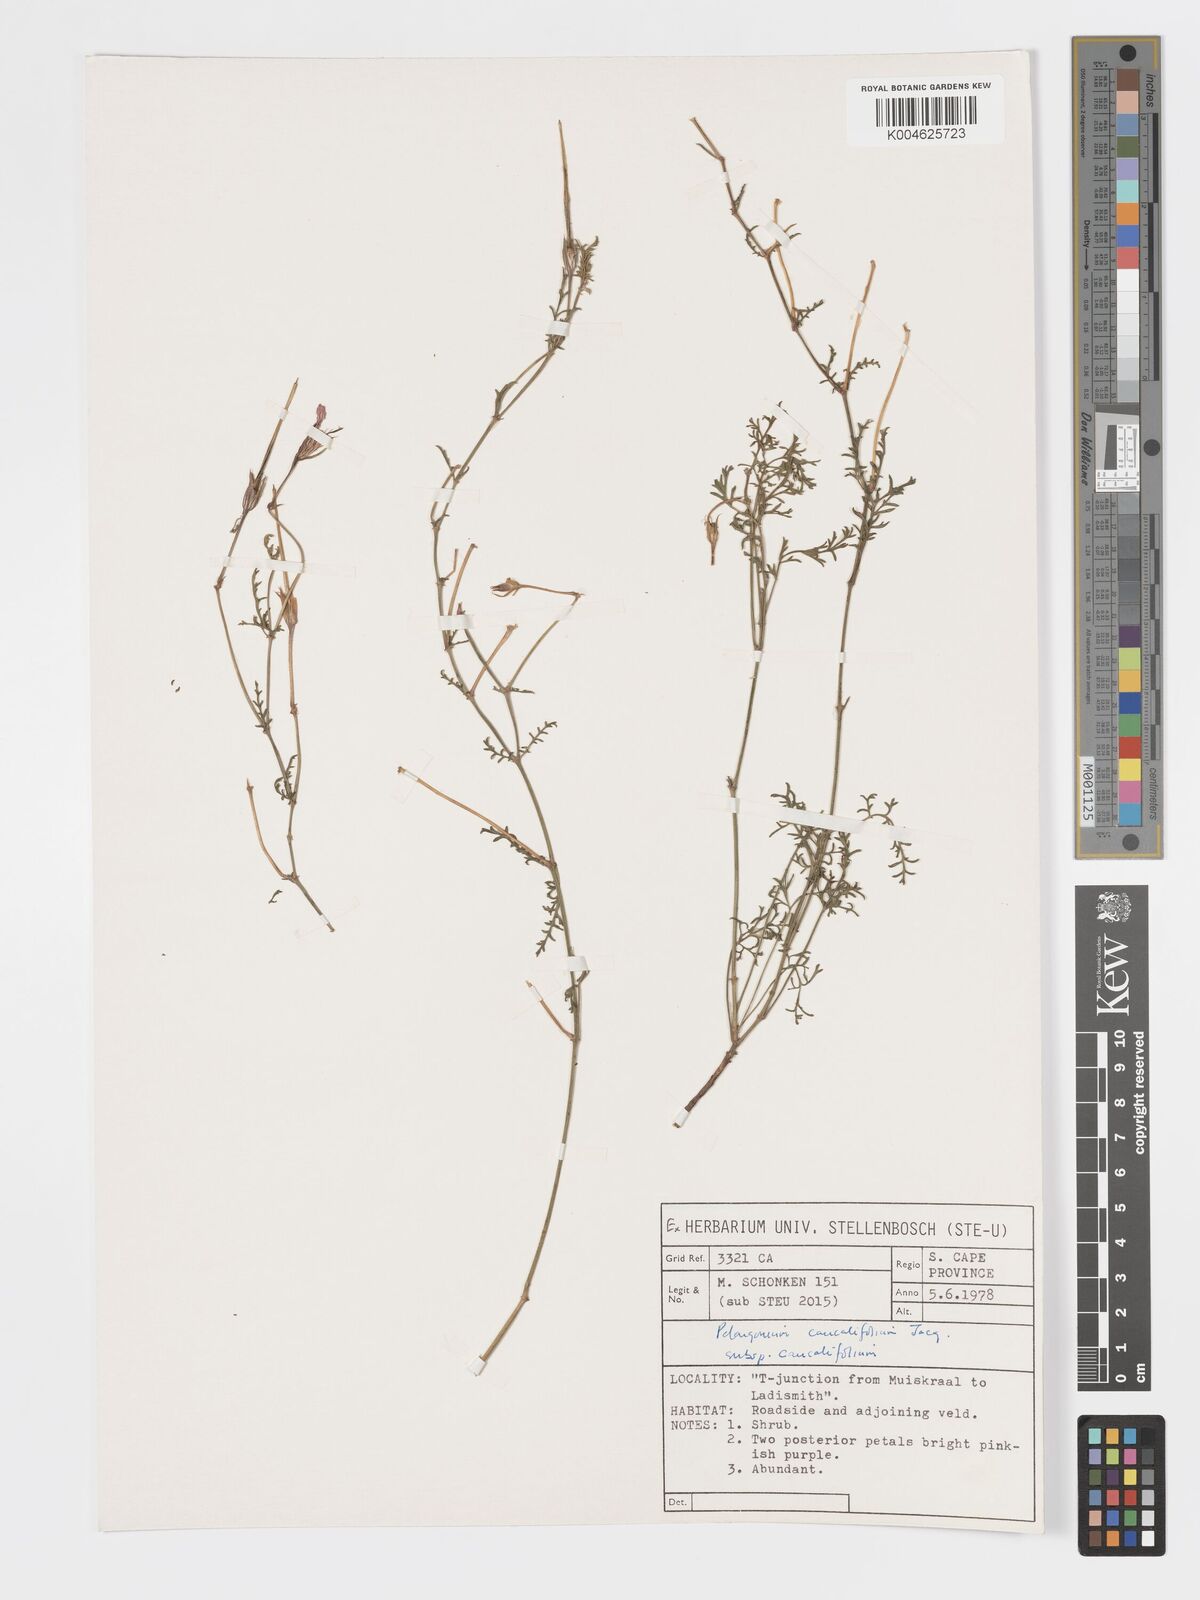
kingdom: Plantae
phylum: Tracheophyta
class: Magnoliopsida
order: Geraniales
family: Geraniaceae
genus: Pelargonium
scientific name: Pelargonium caucalifolium
